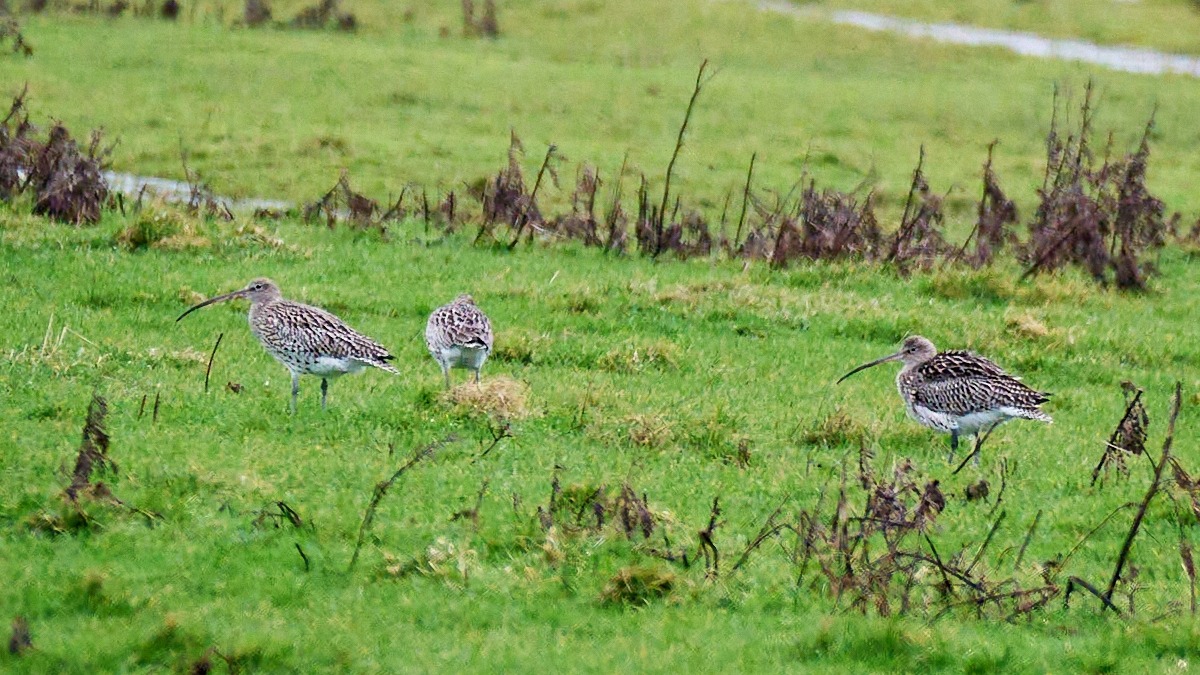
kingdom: Animalia
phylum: Chordata
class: Aves
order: Charadriiformes
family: Scolopacidae
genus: Numenius
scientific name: Numenius arquata
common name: Storspove
